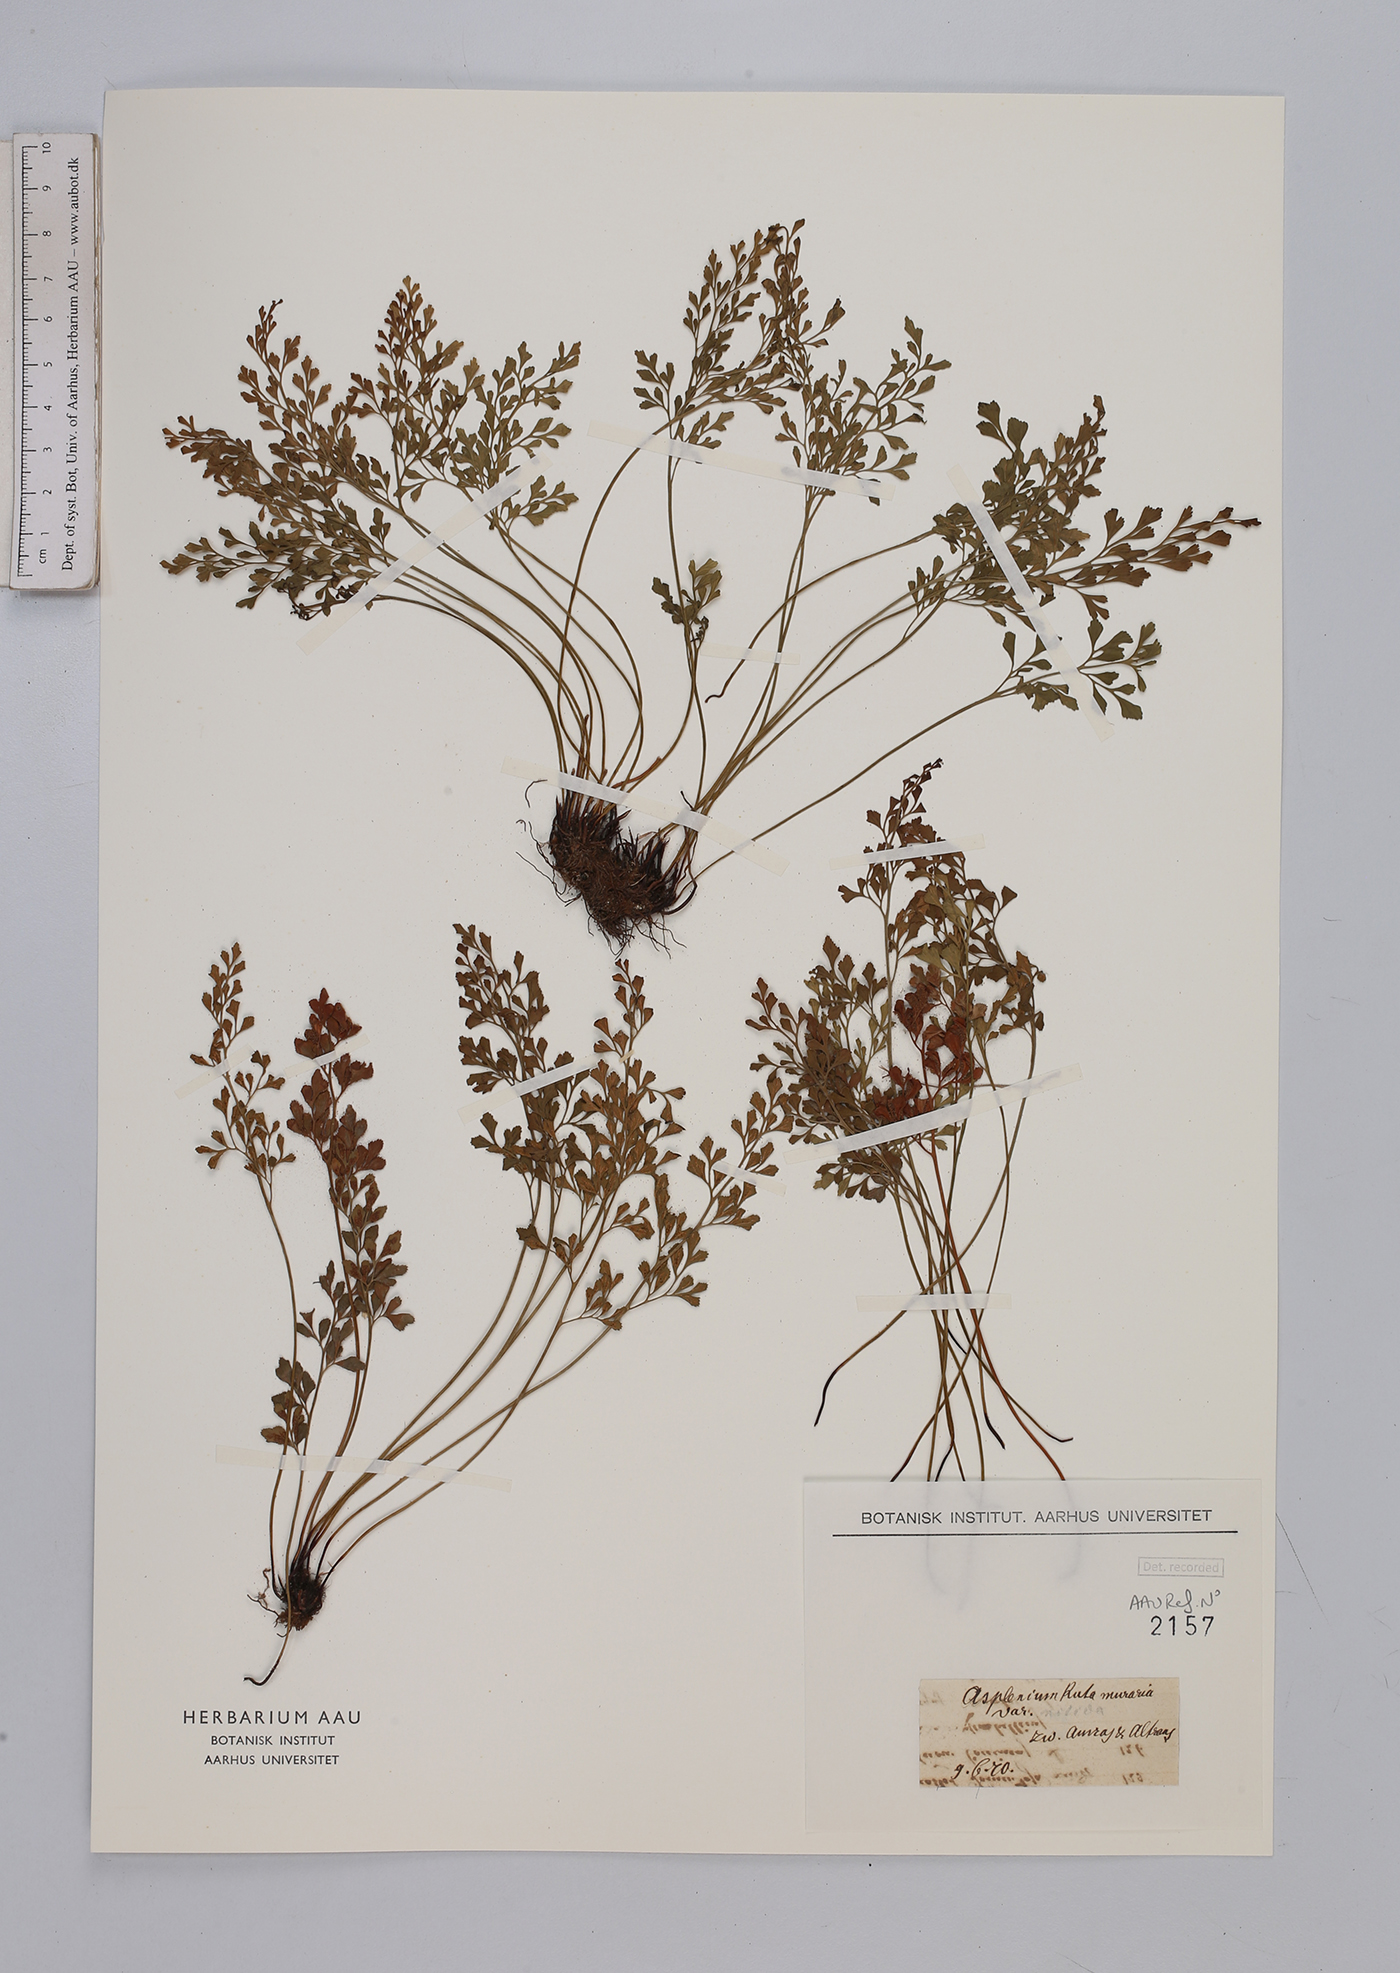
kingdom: Plantae
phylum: Tracheophyta
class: Polypodiopsida
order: Polypodiales
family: Aspleniaceae
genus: Asplenium
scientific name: Asplenium ruta-muraria
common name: Wall-rue
